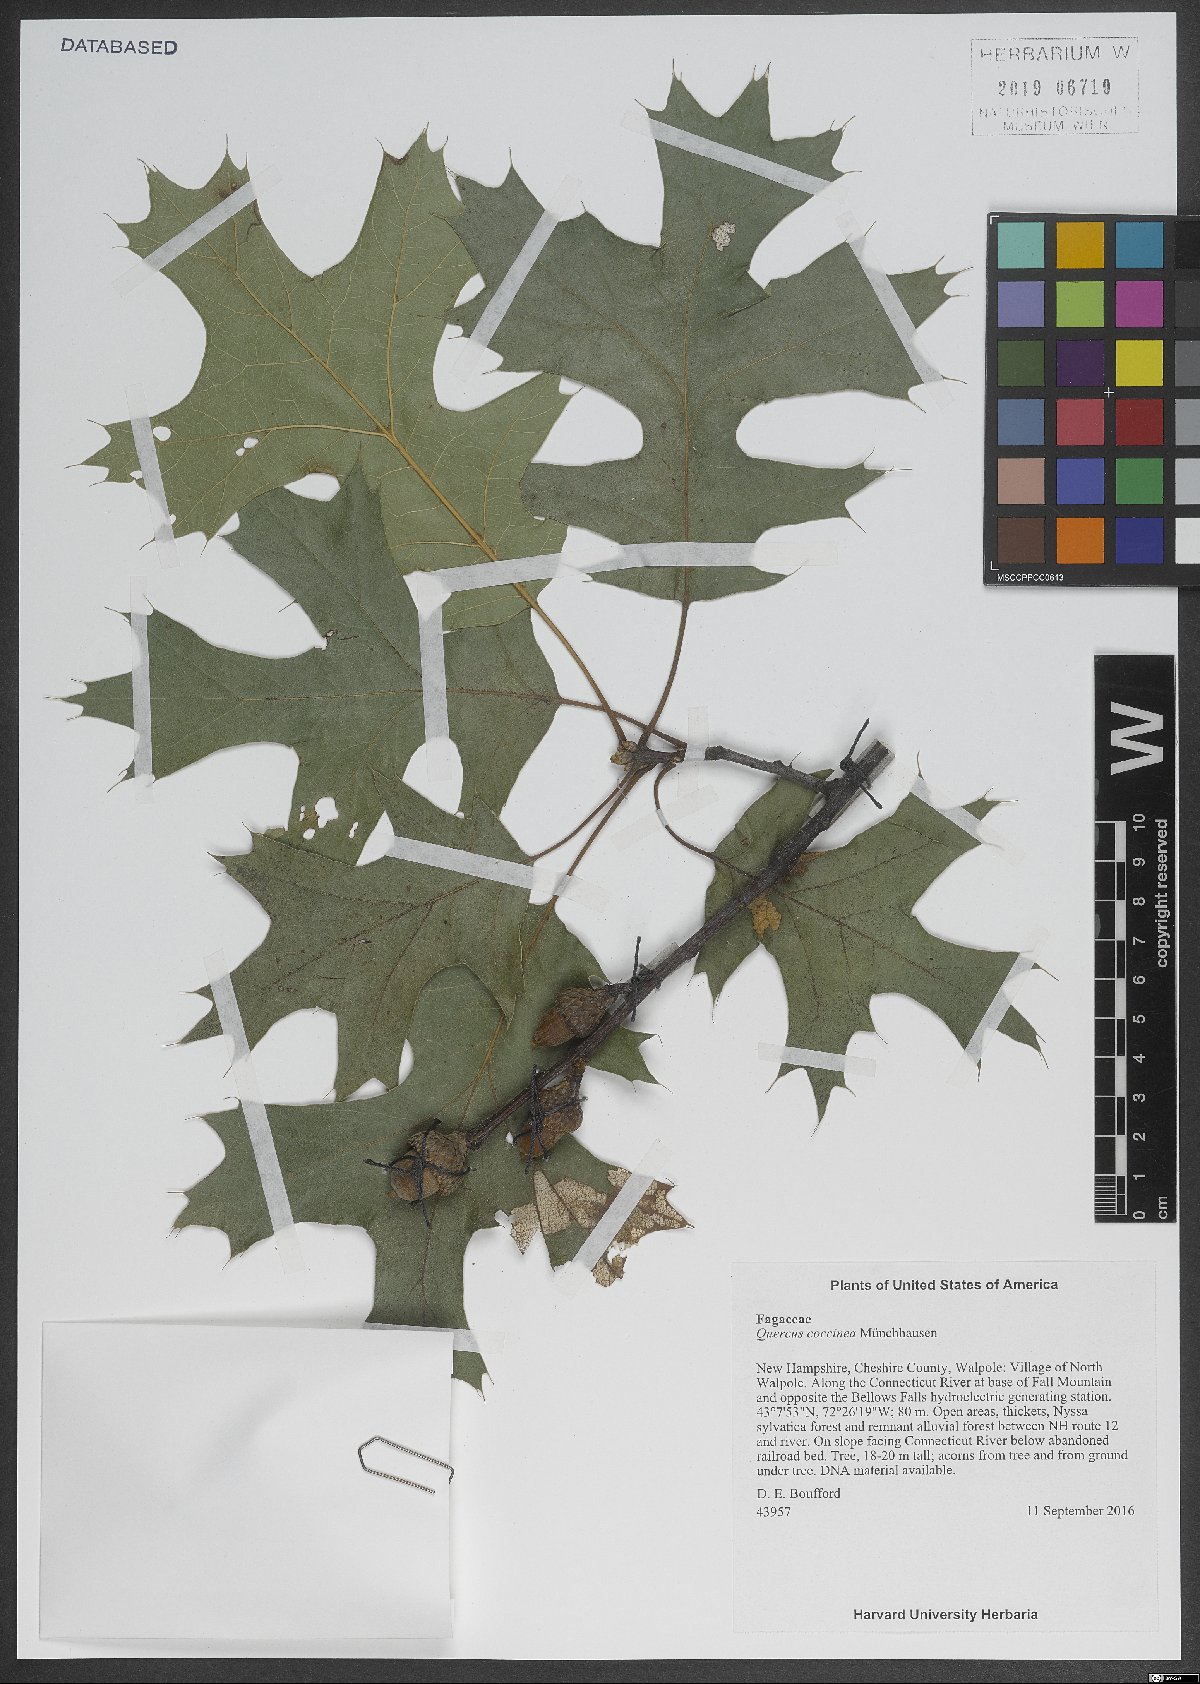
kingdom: Plantae
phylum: Tracheophyta
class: Magnoliopsida
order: Fagales
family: Fagaceae
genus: Quercus
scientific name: Quercus coccinea
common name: Scarlet oak
